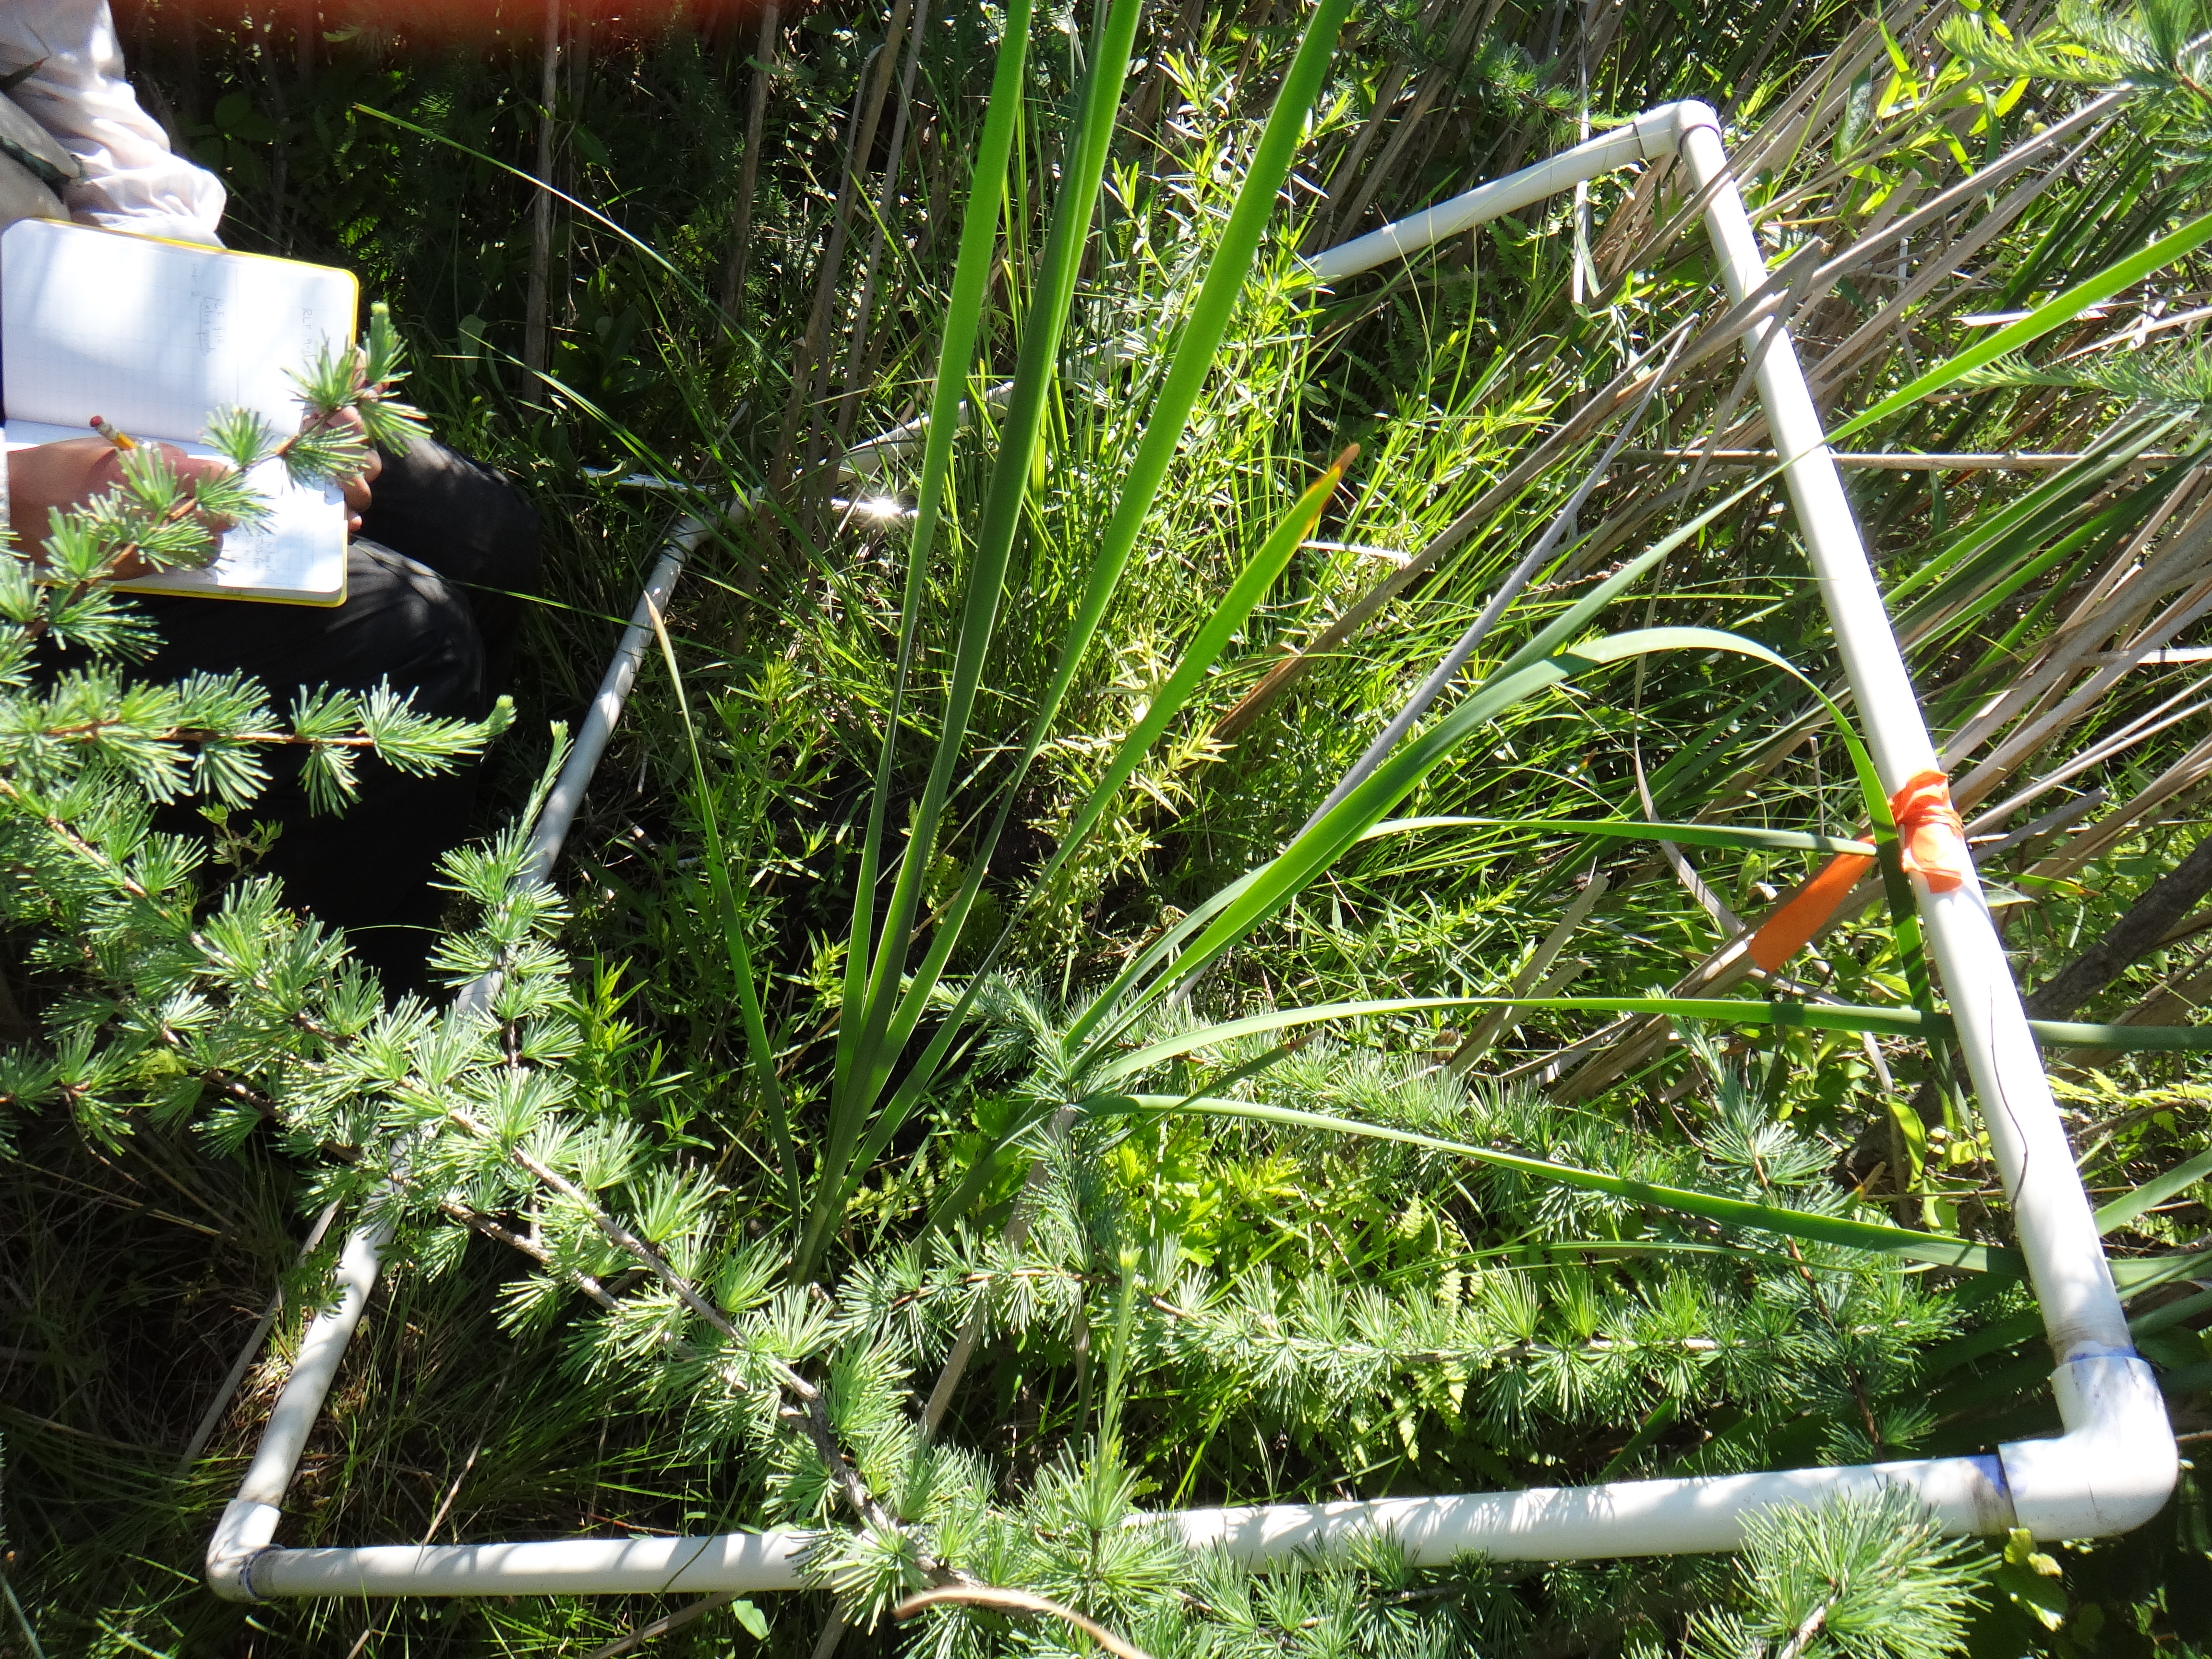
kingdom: Plantae
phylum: Tracheophyta
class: Liliopsida
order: Poales
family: Cyperaceae
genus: Schoenoplectus
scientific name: Schoenoplectus pungens
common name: Sharp club-rush
